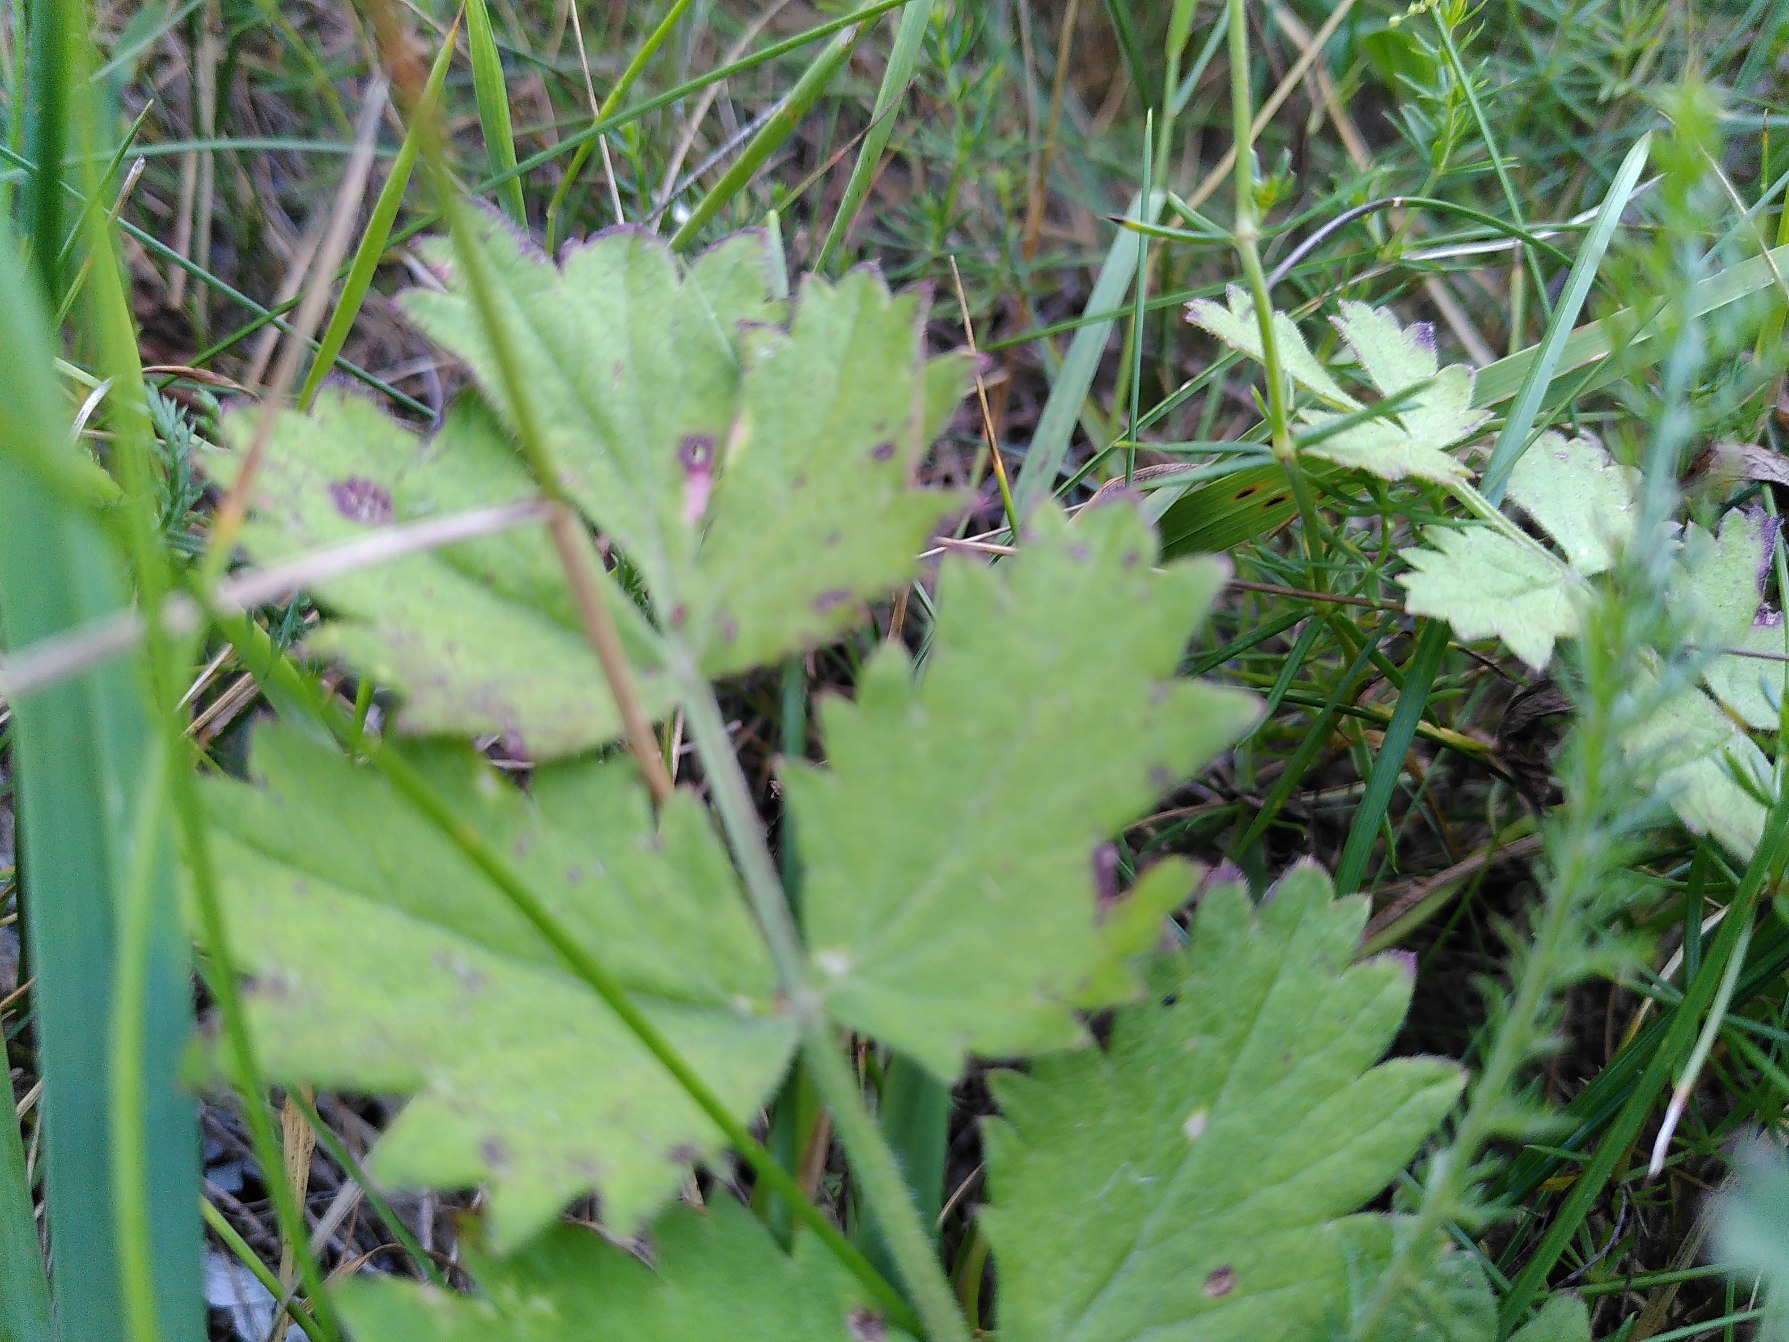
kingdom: Plantae
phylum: Tracheophyta
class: Magnoliopsida
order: Apiales
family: Apiaceae
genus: Pimpinella
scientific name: Pimpinella saxifraga
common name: Almindelig pimpinelle
